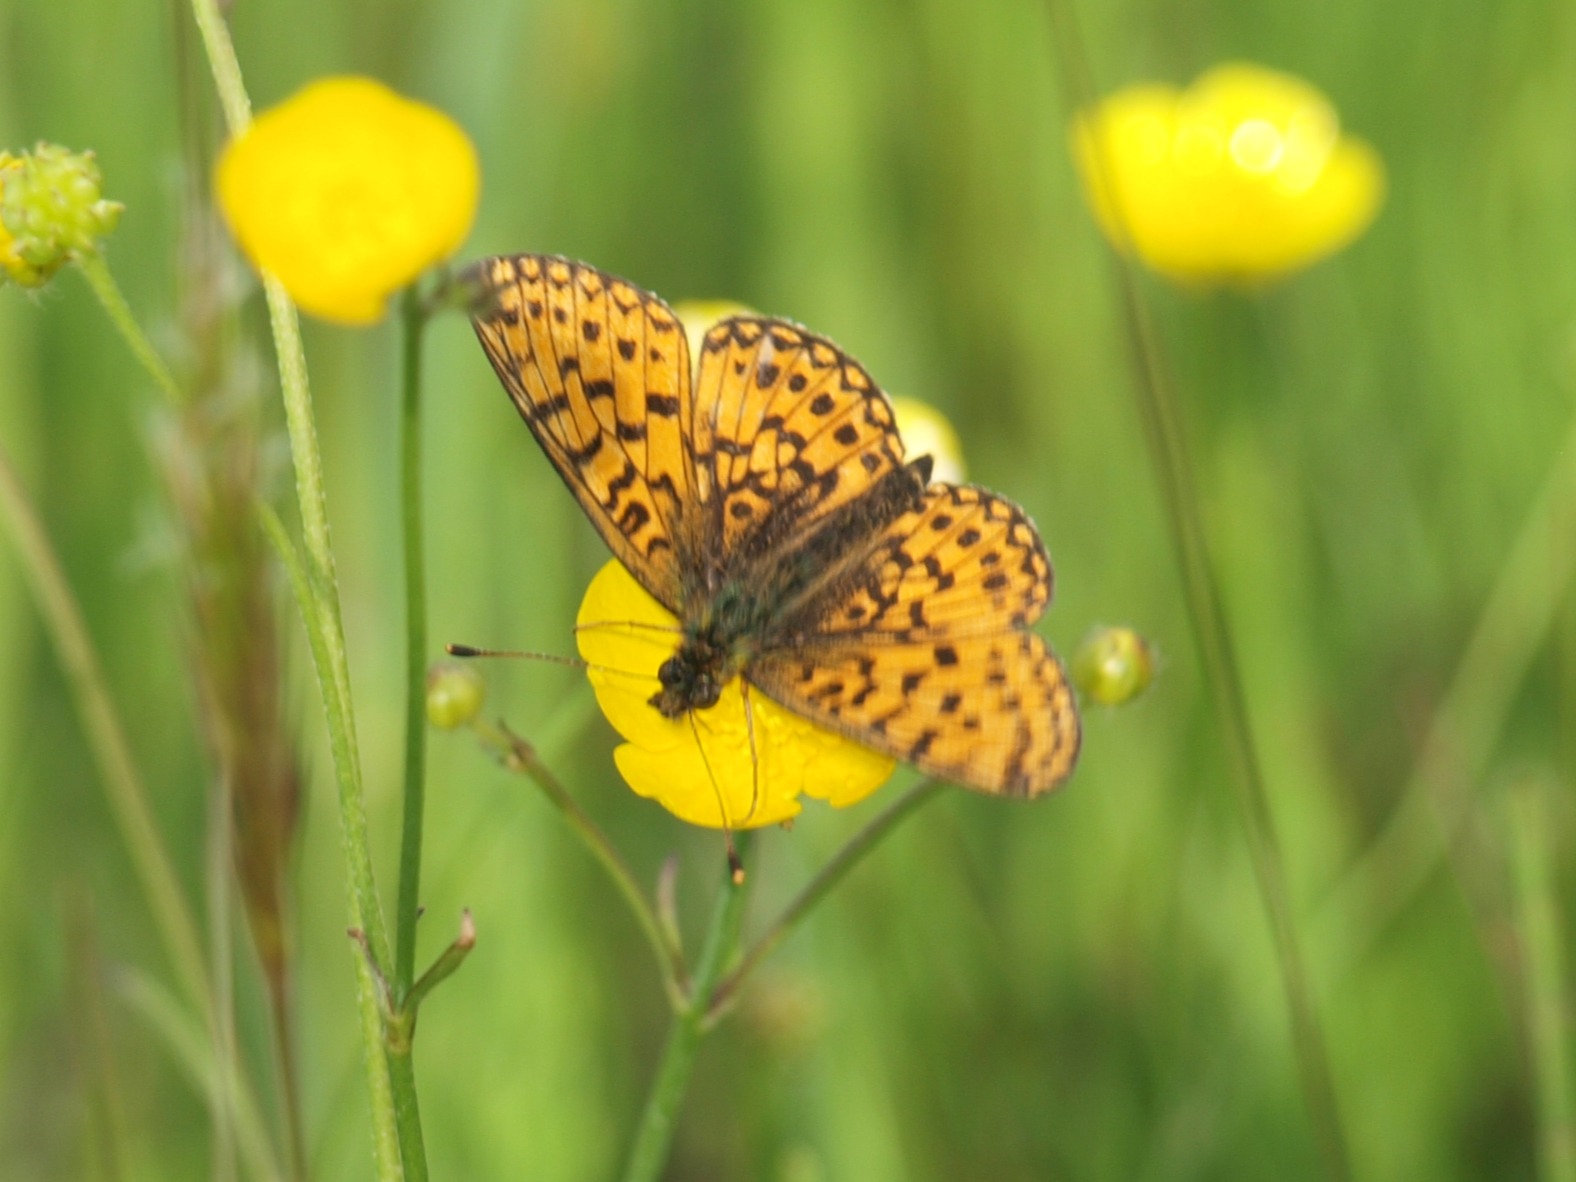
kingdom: Animalia
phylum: Arthropoda
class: Insecta
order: Lepidoptera
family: Nymphalidae
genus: Boloria
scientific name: Boloria selene
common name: Brunlig perlemorsommerfugl
